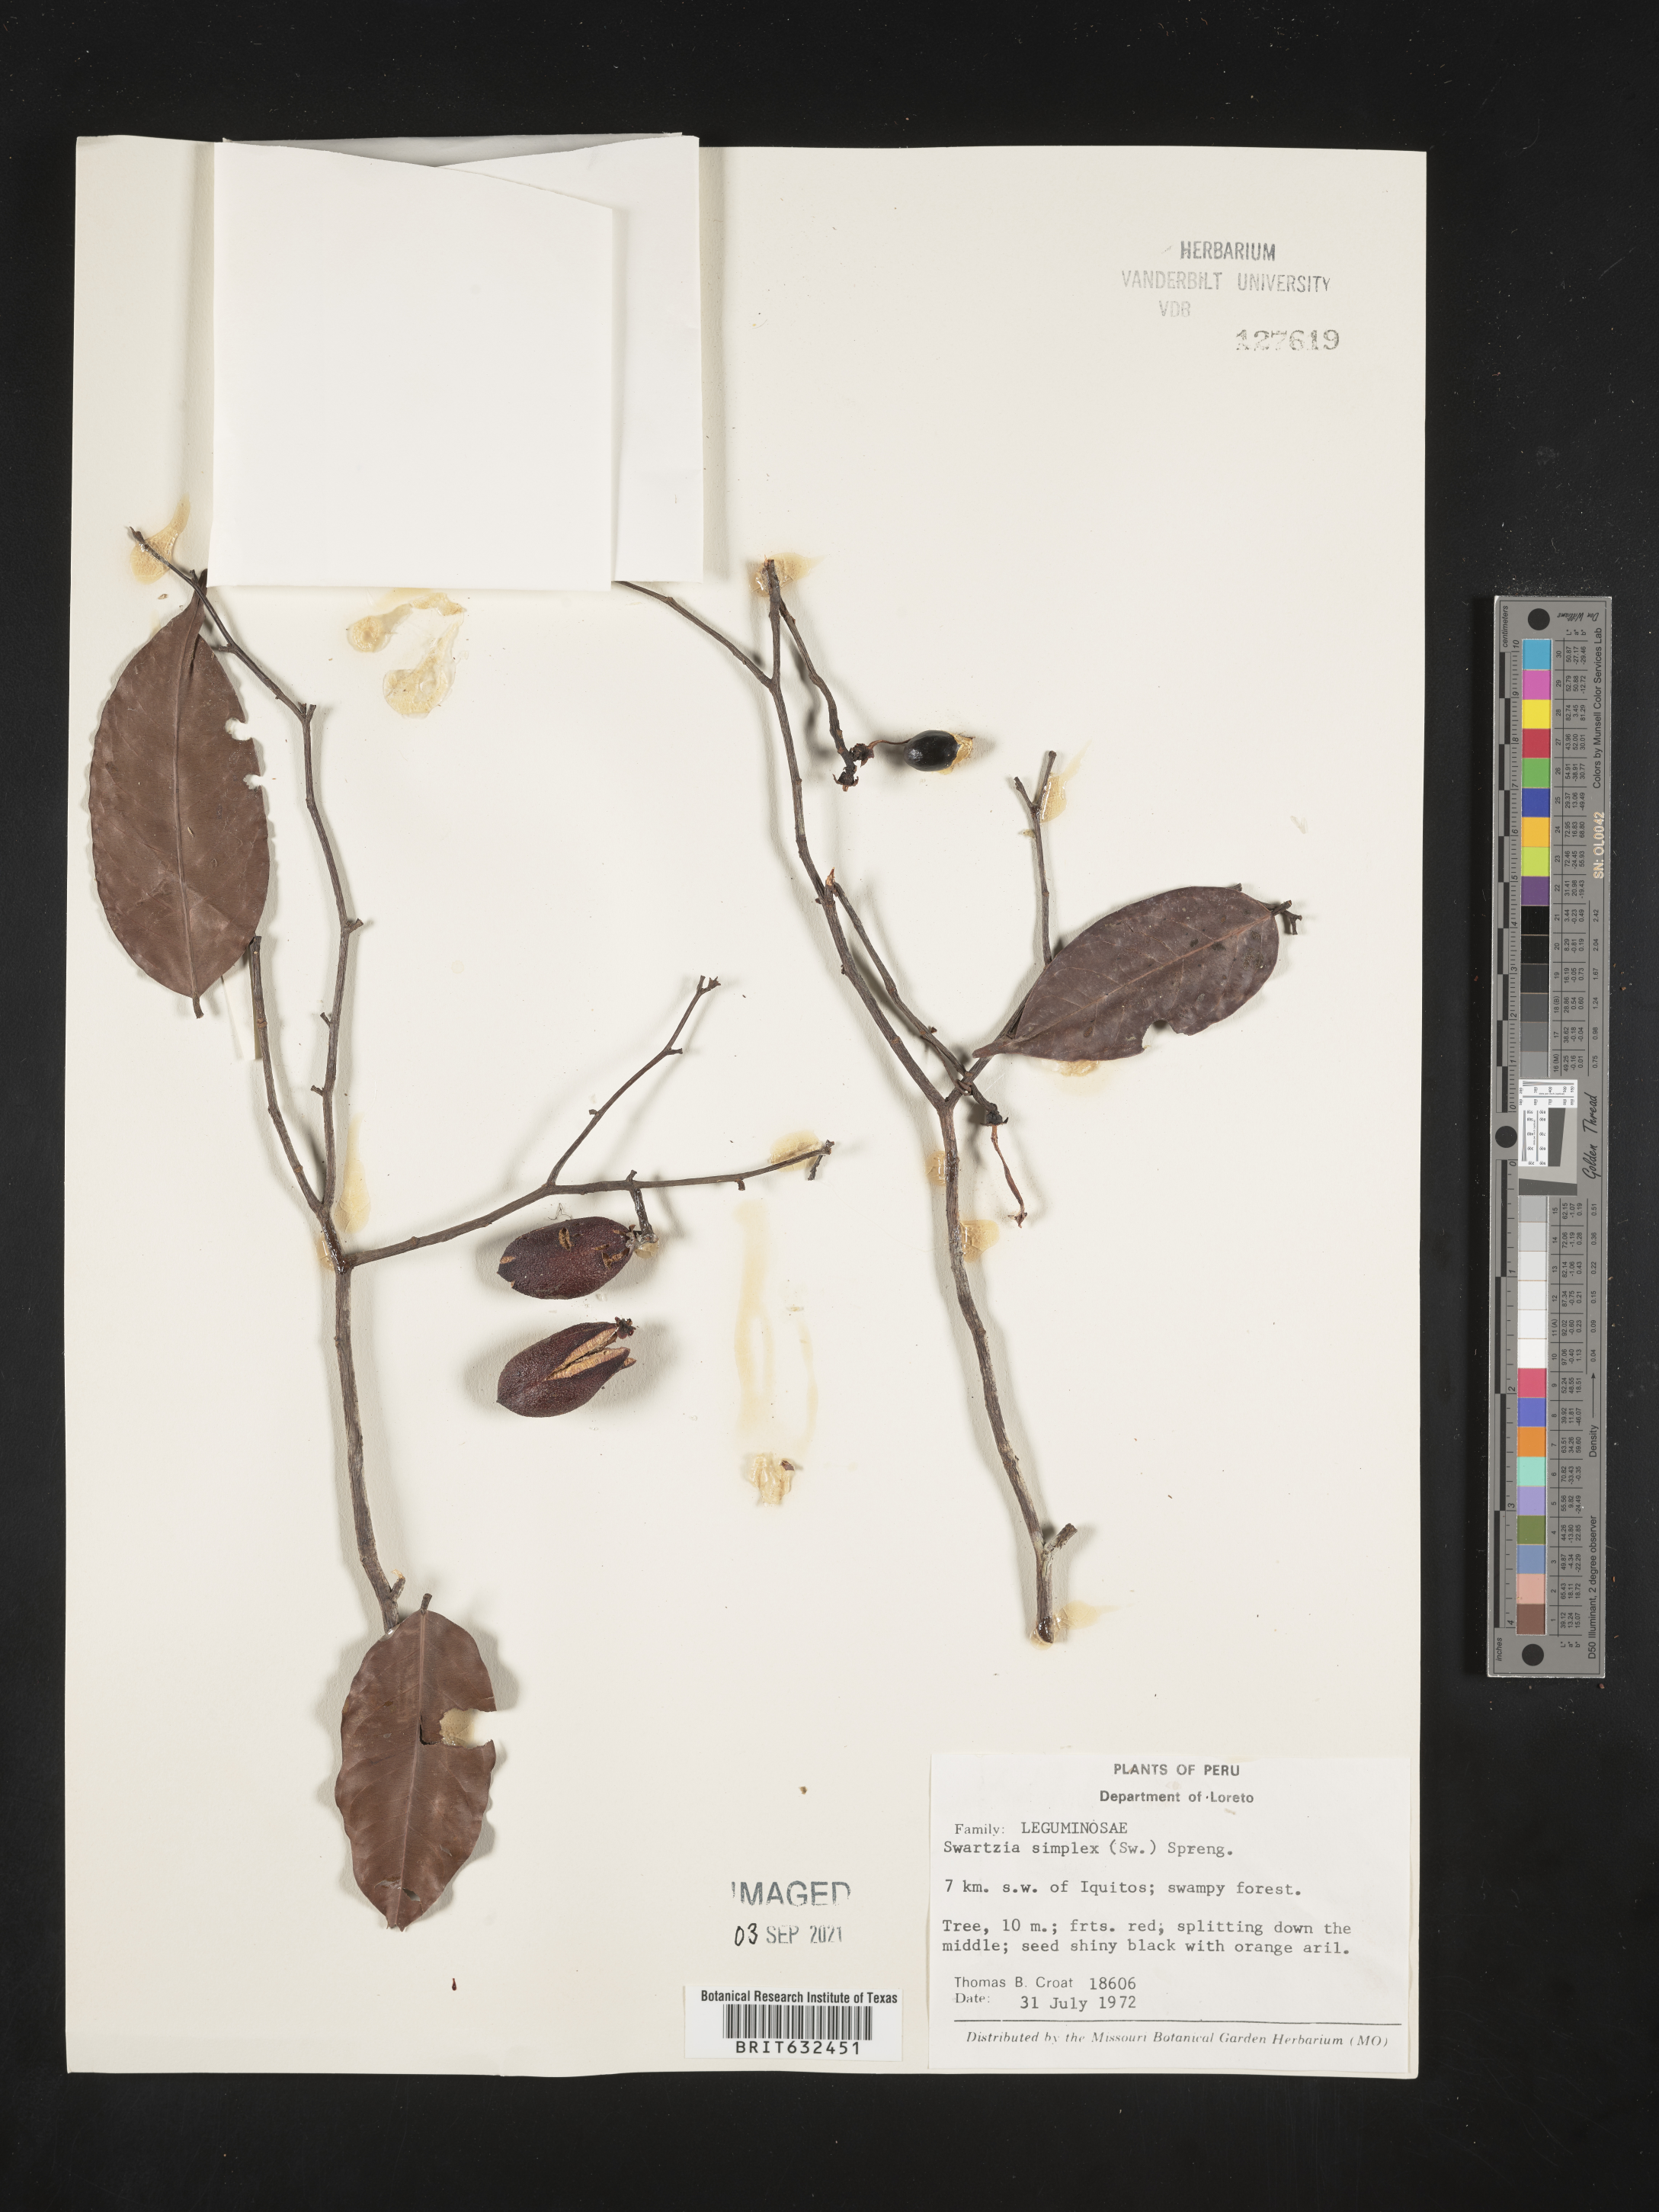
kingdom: Plantae
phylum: Tracheophyta
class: Magnoliopsida
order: Fabales
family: Fabaceae
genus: Swartzia
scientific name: Swartzia
